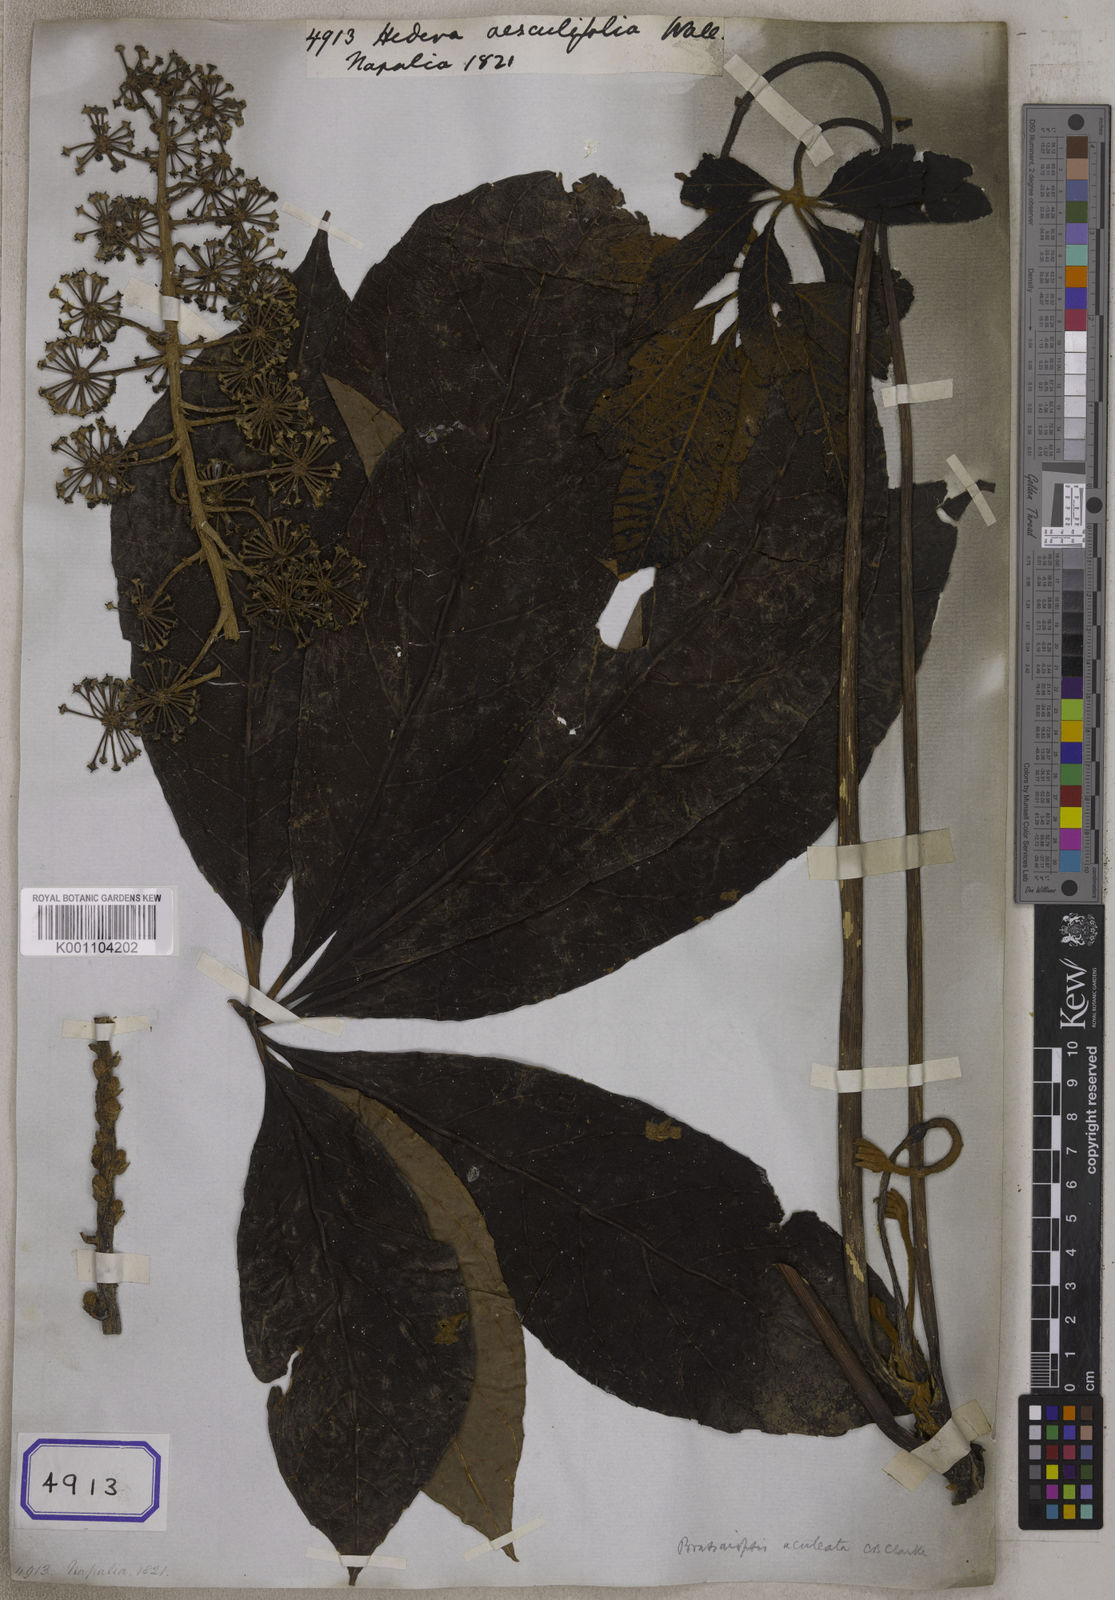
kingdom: Plantae
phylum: Tracheophyta
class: Magnoliopsida
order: Apiales
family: Araliaceae
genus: Hedera
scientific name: Hedera
